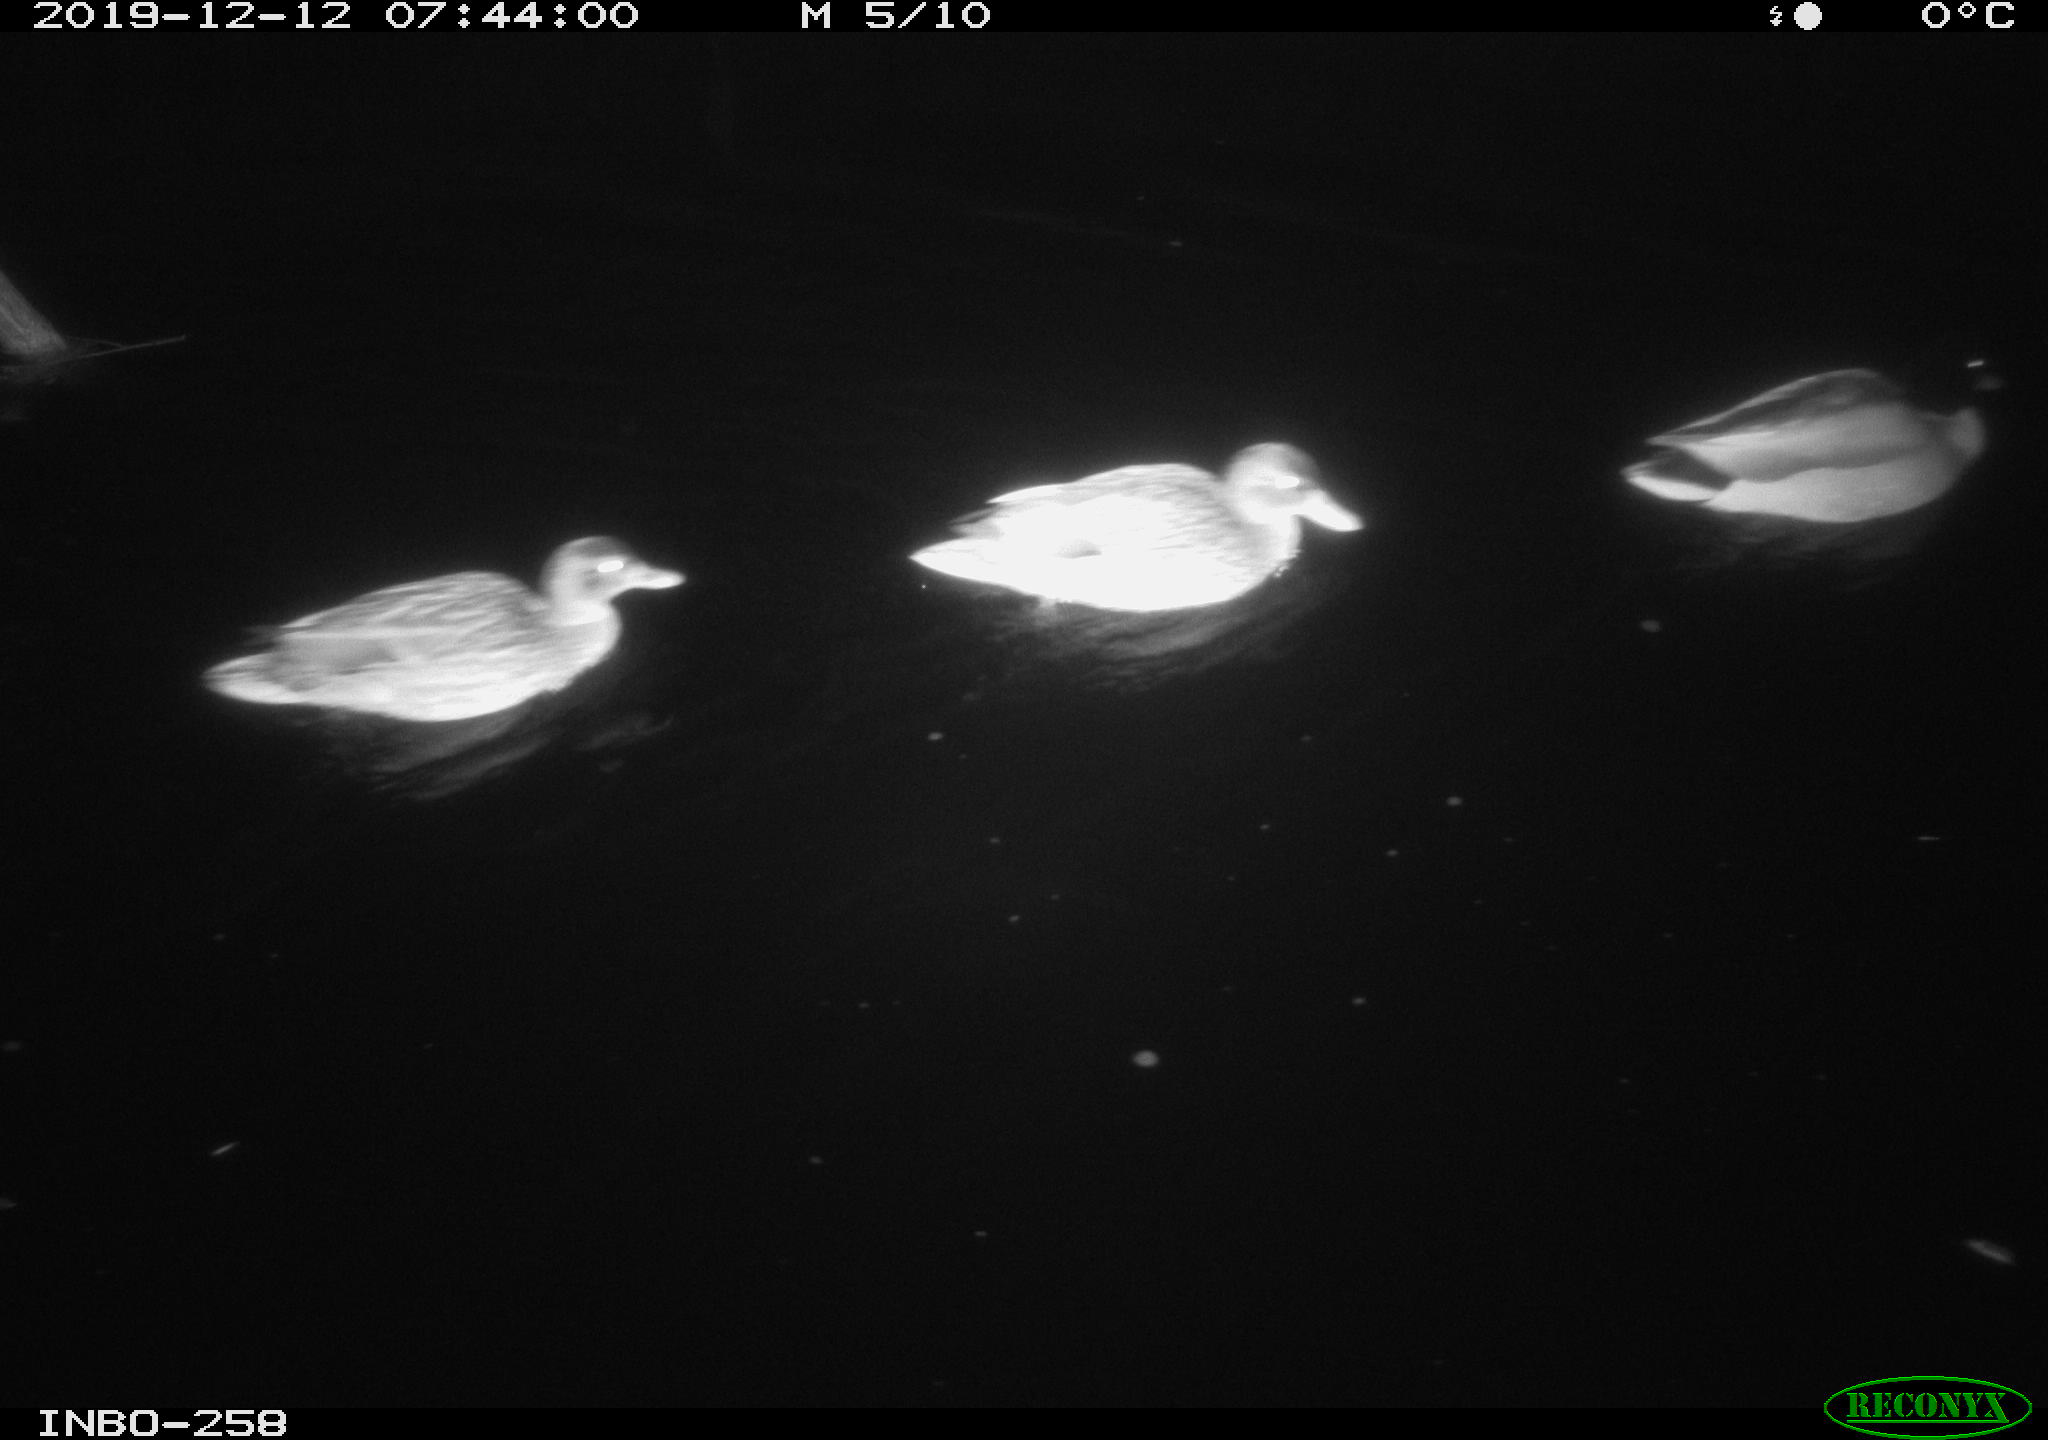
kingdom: Animalia
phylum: Chordata
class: Aves
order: Anseriformes
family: Anatidae
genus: Anas
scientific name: Anas platyrhynchos
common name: Mallard
